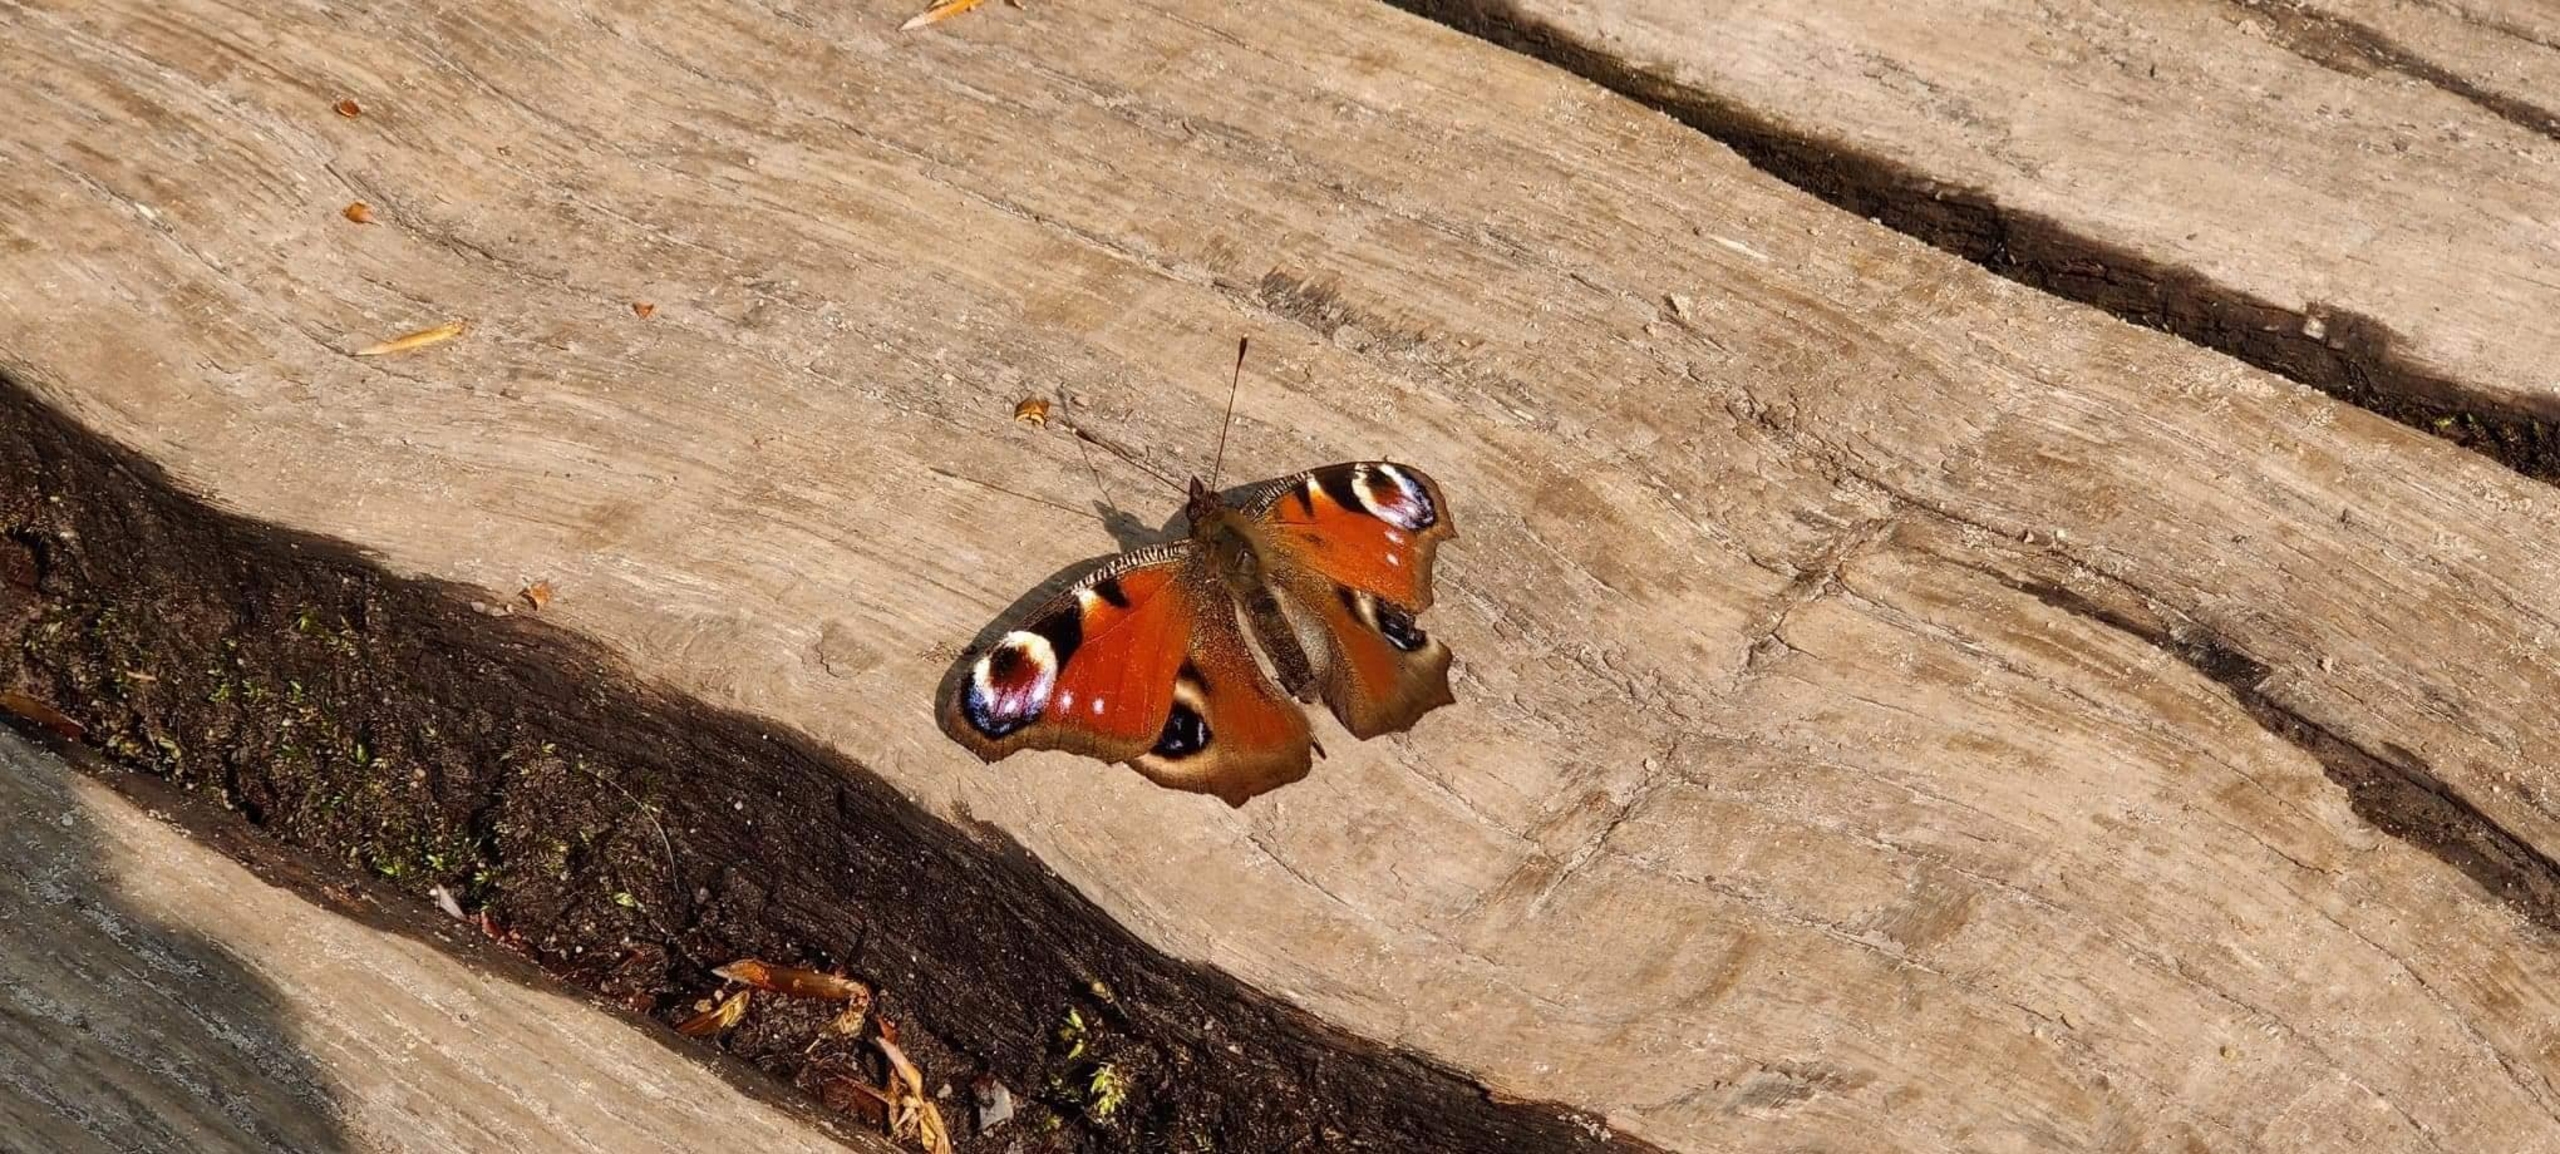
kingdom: Animalia
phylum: Arthropoda
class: Insecta
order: Lepidoptera
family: Nymphalidae
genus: Aglais
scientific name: Aglais io
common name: Dagpåfugleøje
